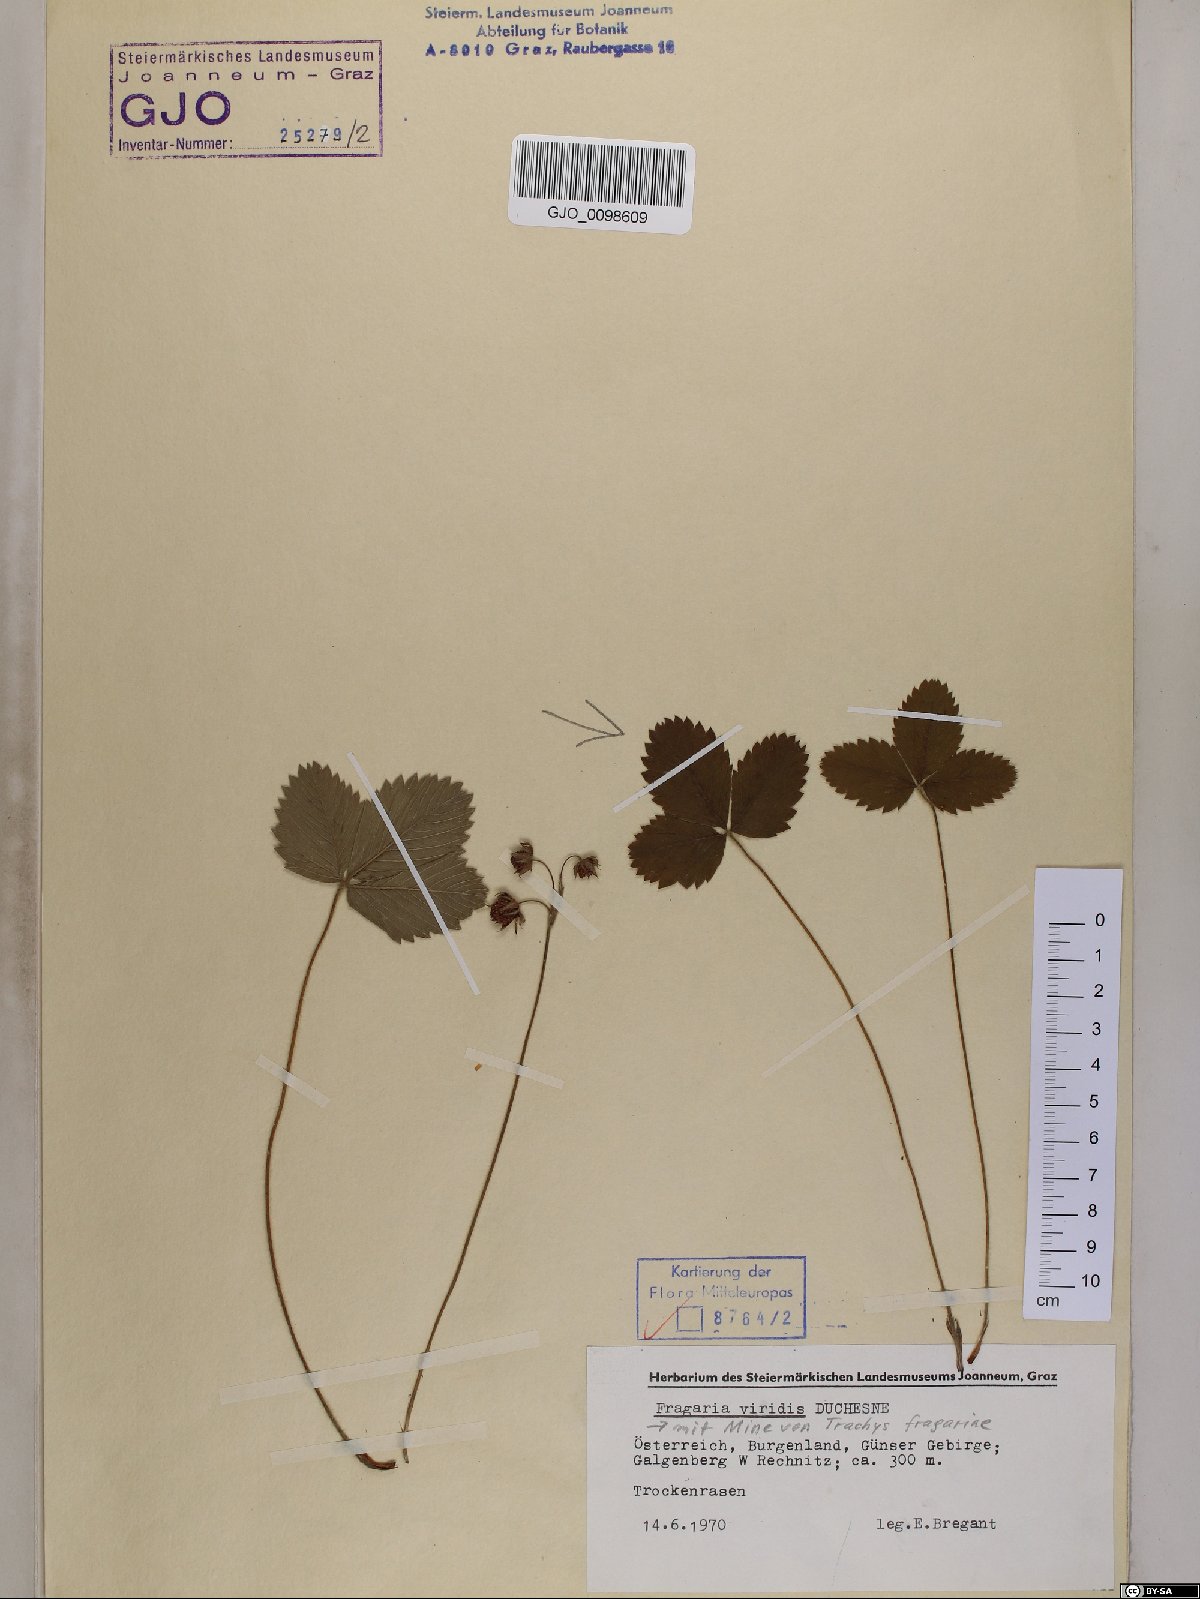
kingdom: Plantae
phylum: Tracheophyta
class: Magnoliopsida
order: Rosales
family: Rosaceae
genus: Fragaria
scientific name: Fragaria viridis
